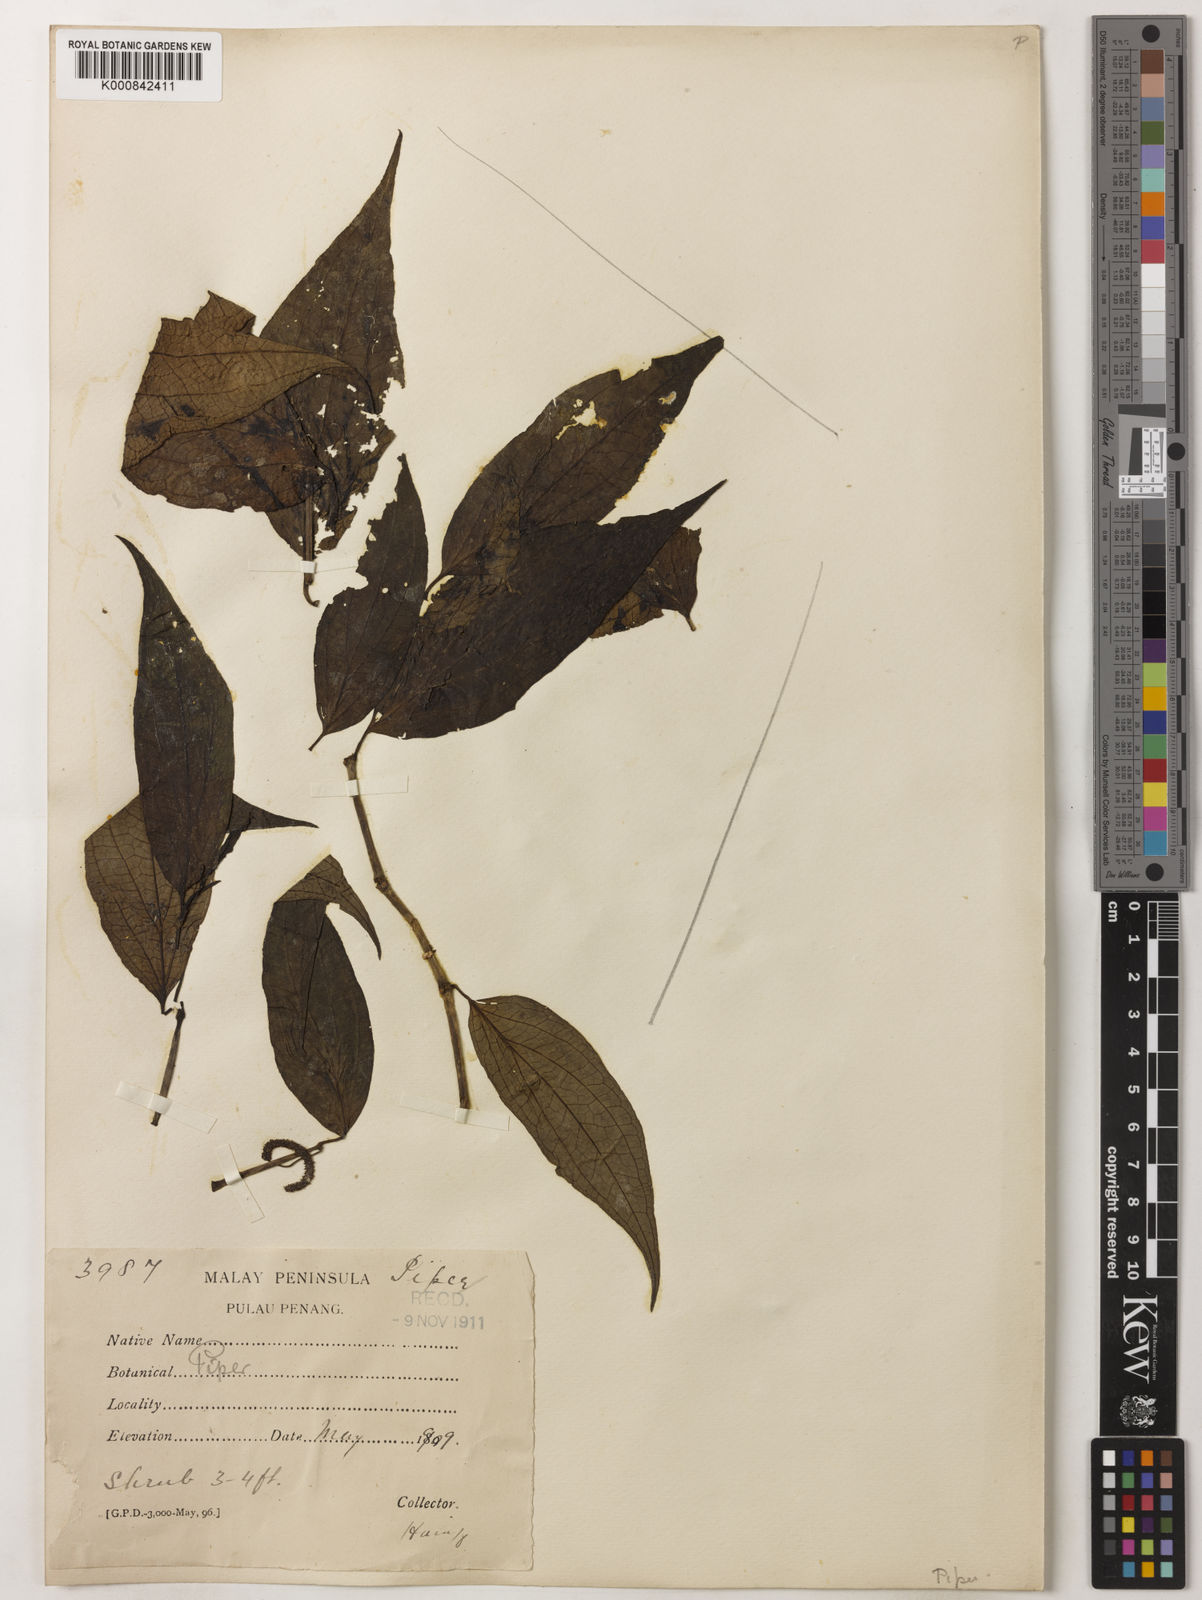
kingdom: Plantae
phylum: Tracheophyta
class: Magnoliopsida
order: Piperales
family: Piperaceae
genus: Piper
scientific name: Piper penangense
